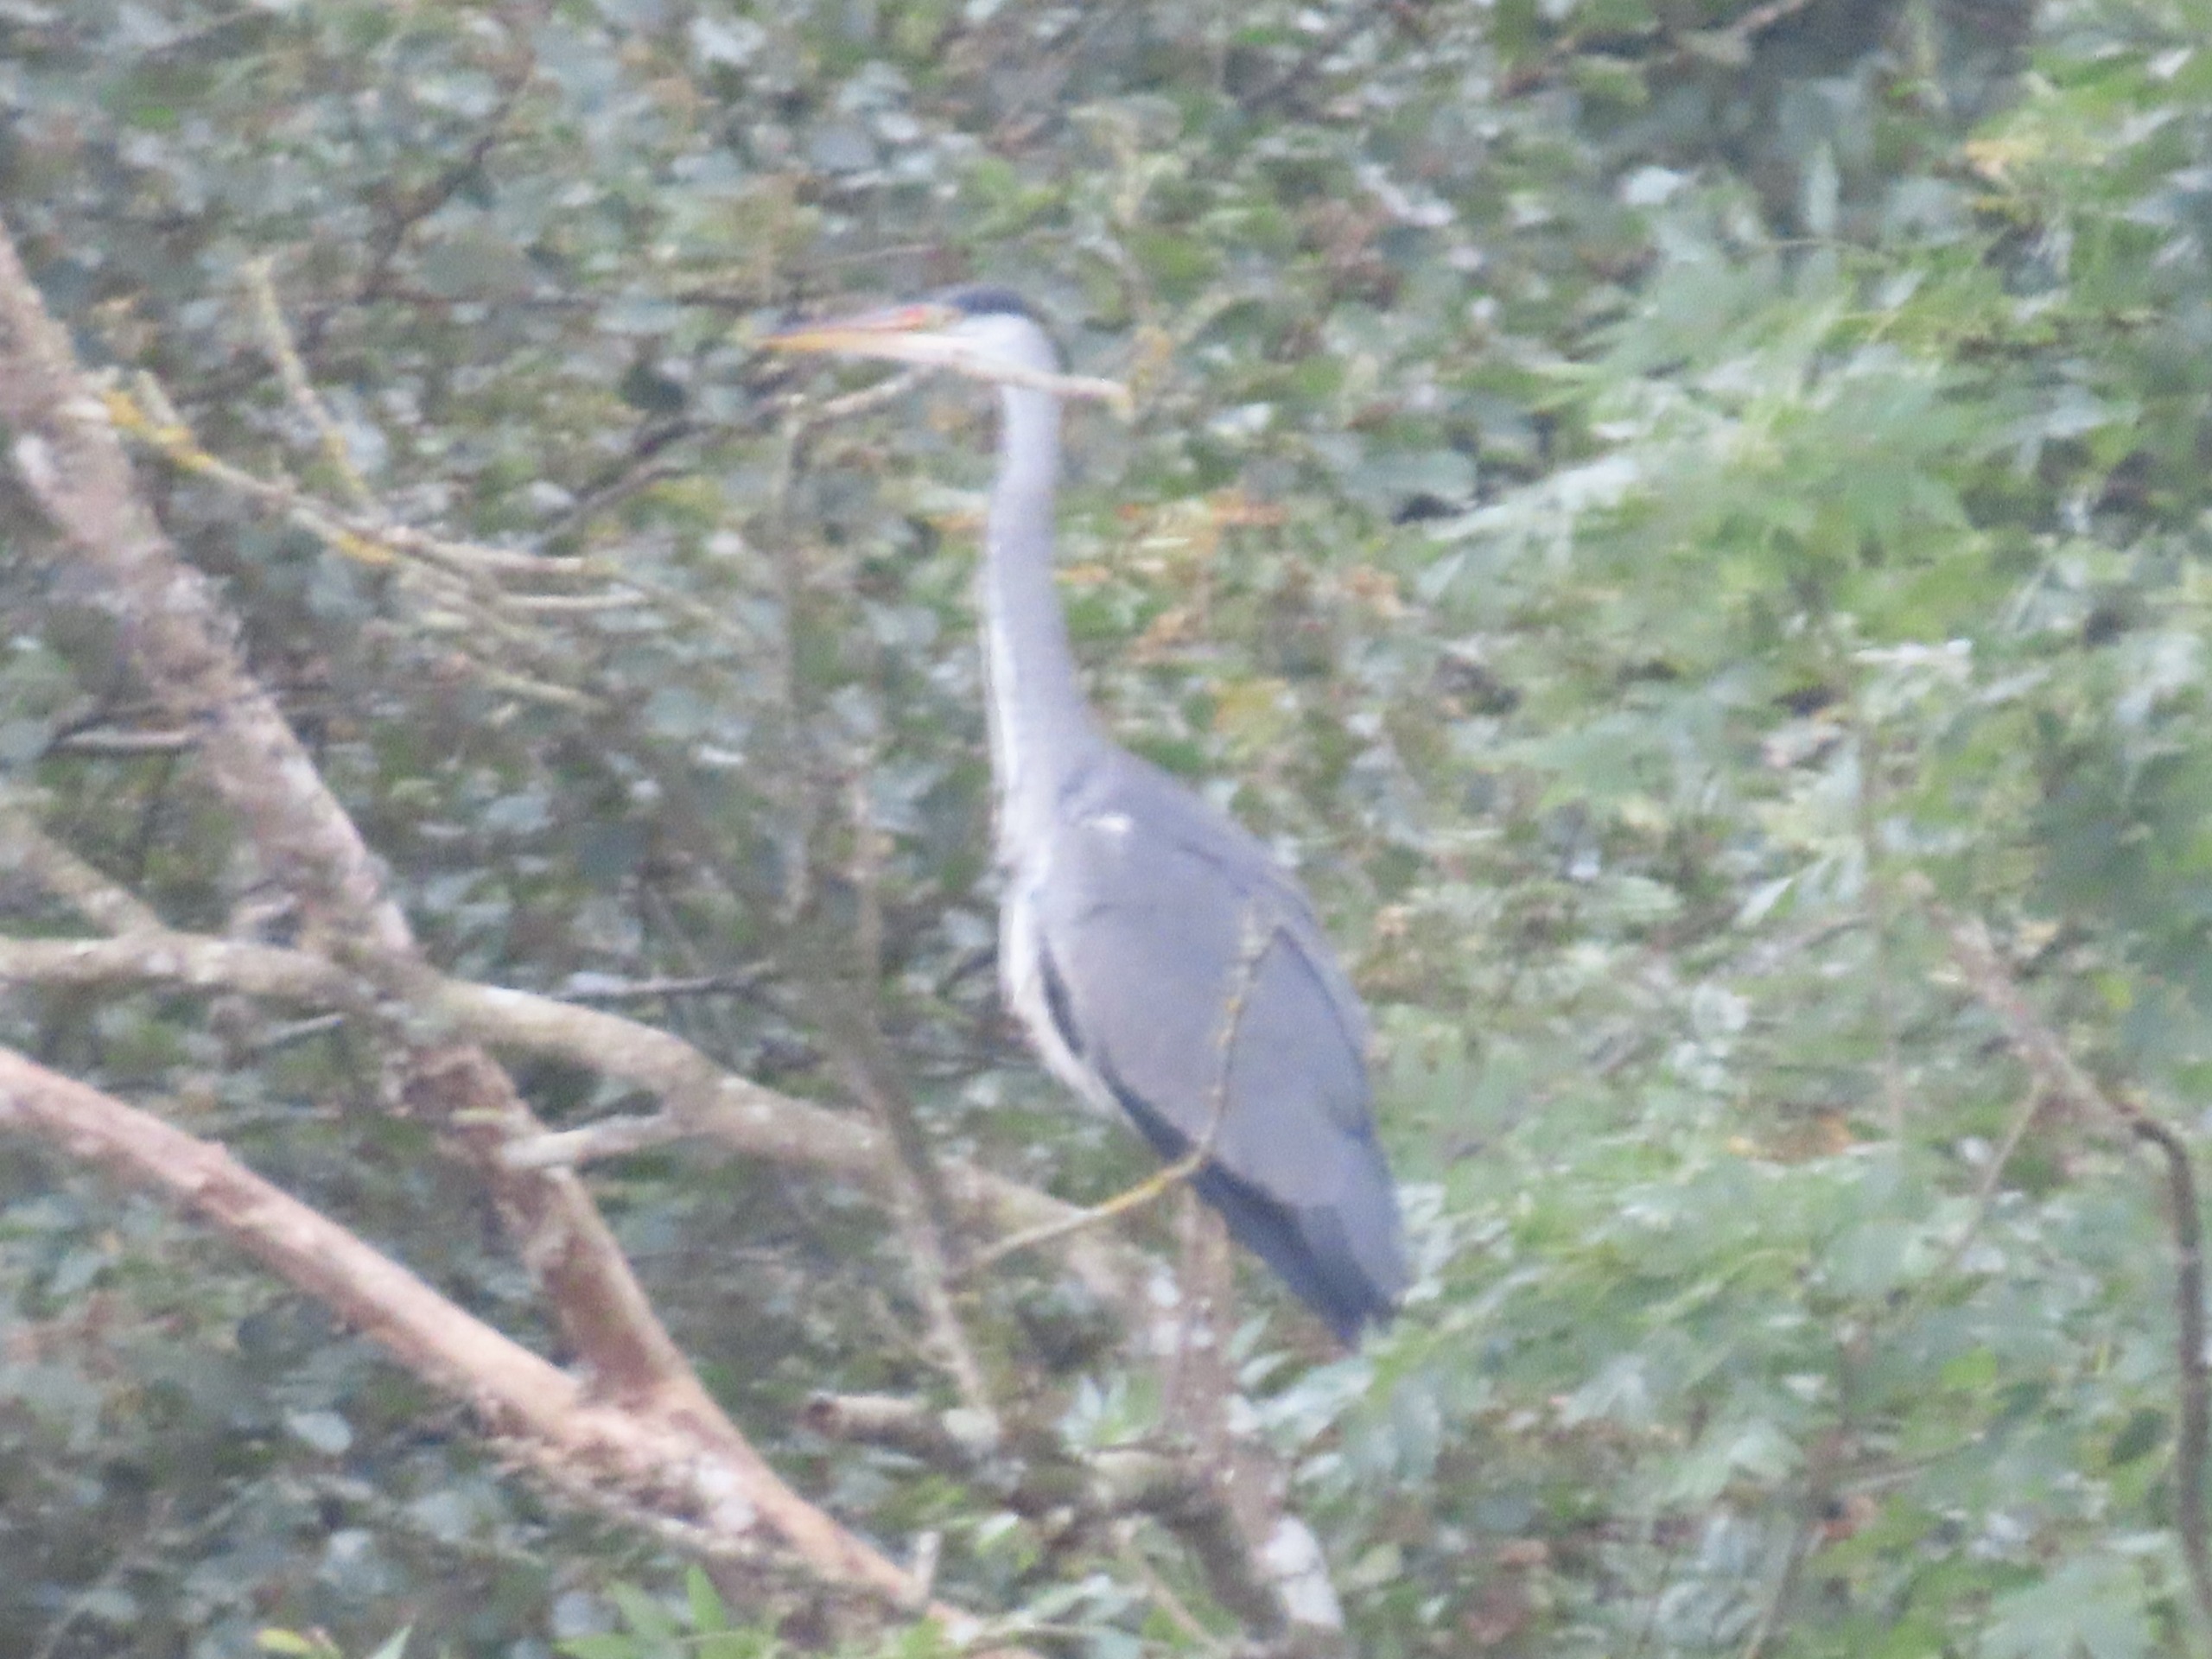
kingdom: Animalia
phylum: Chordata
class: Aves
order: Pelecaniformes
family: Ardeidae
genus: Ardea
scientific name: Ardea cinerea
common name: Fiskehejre
